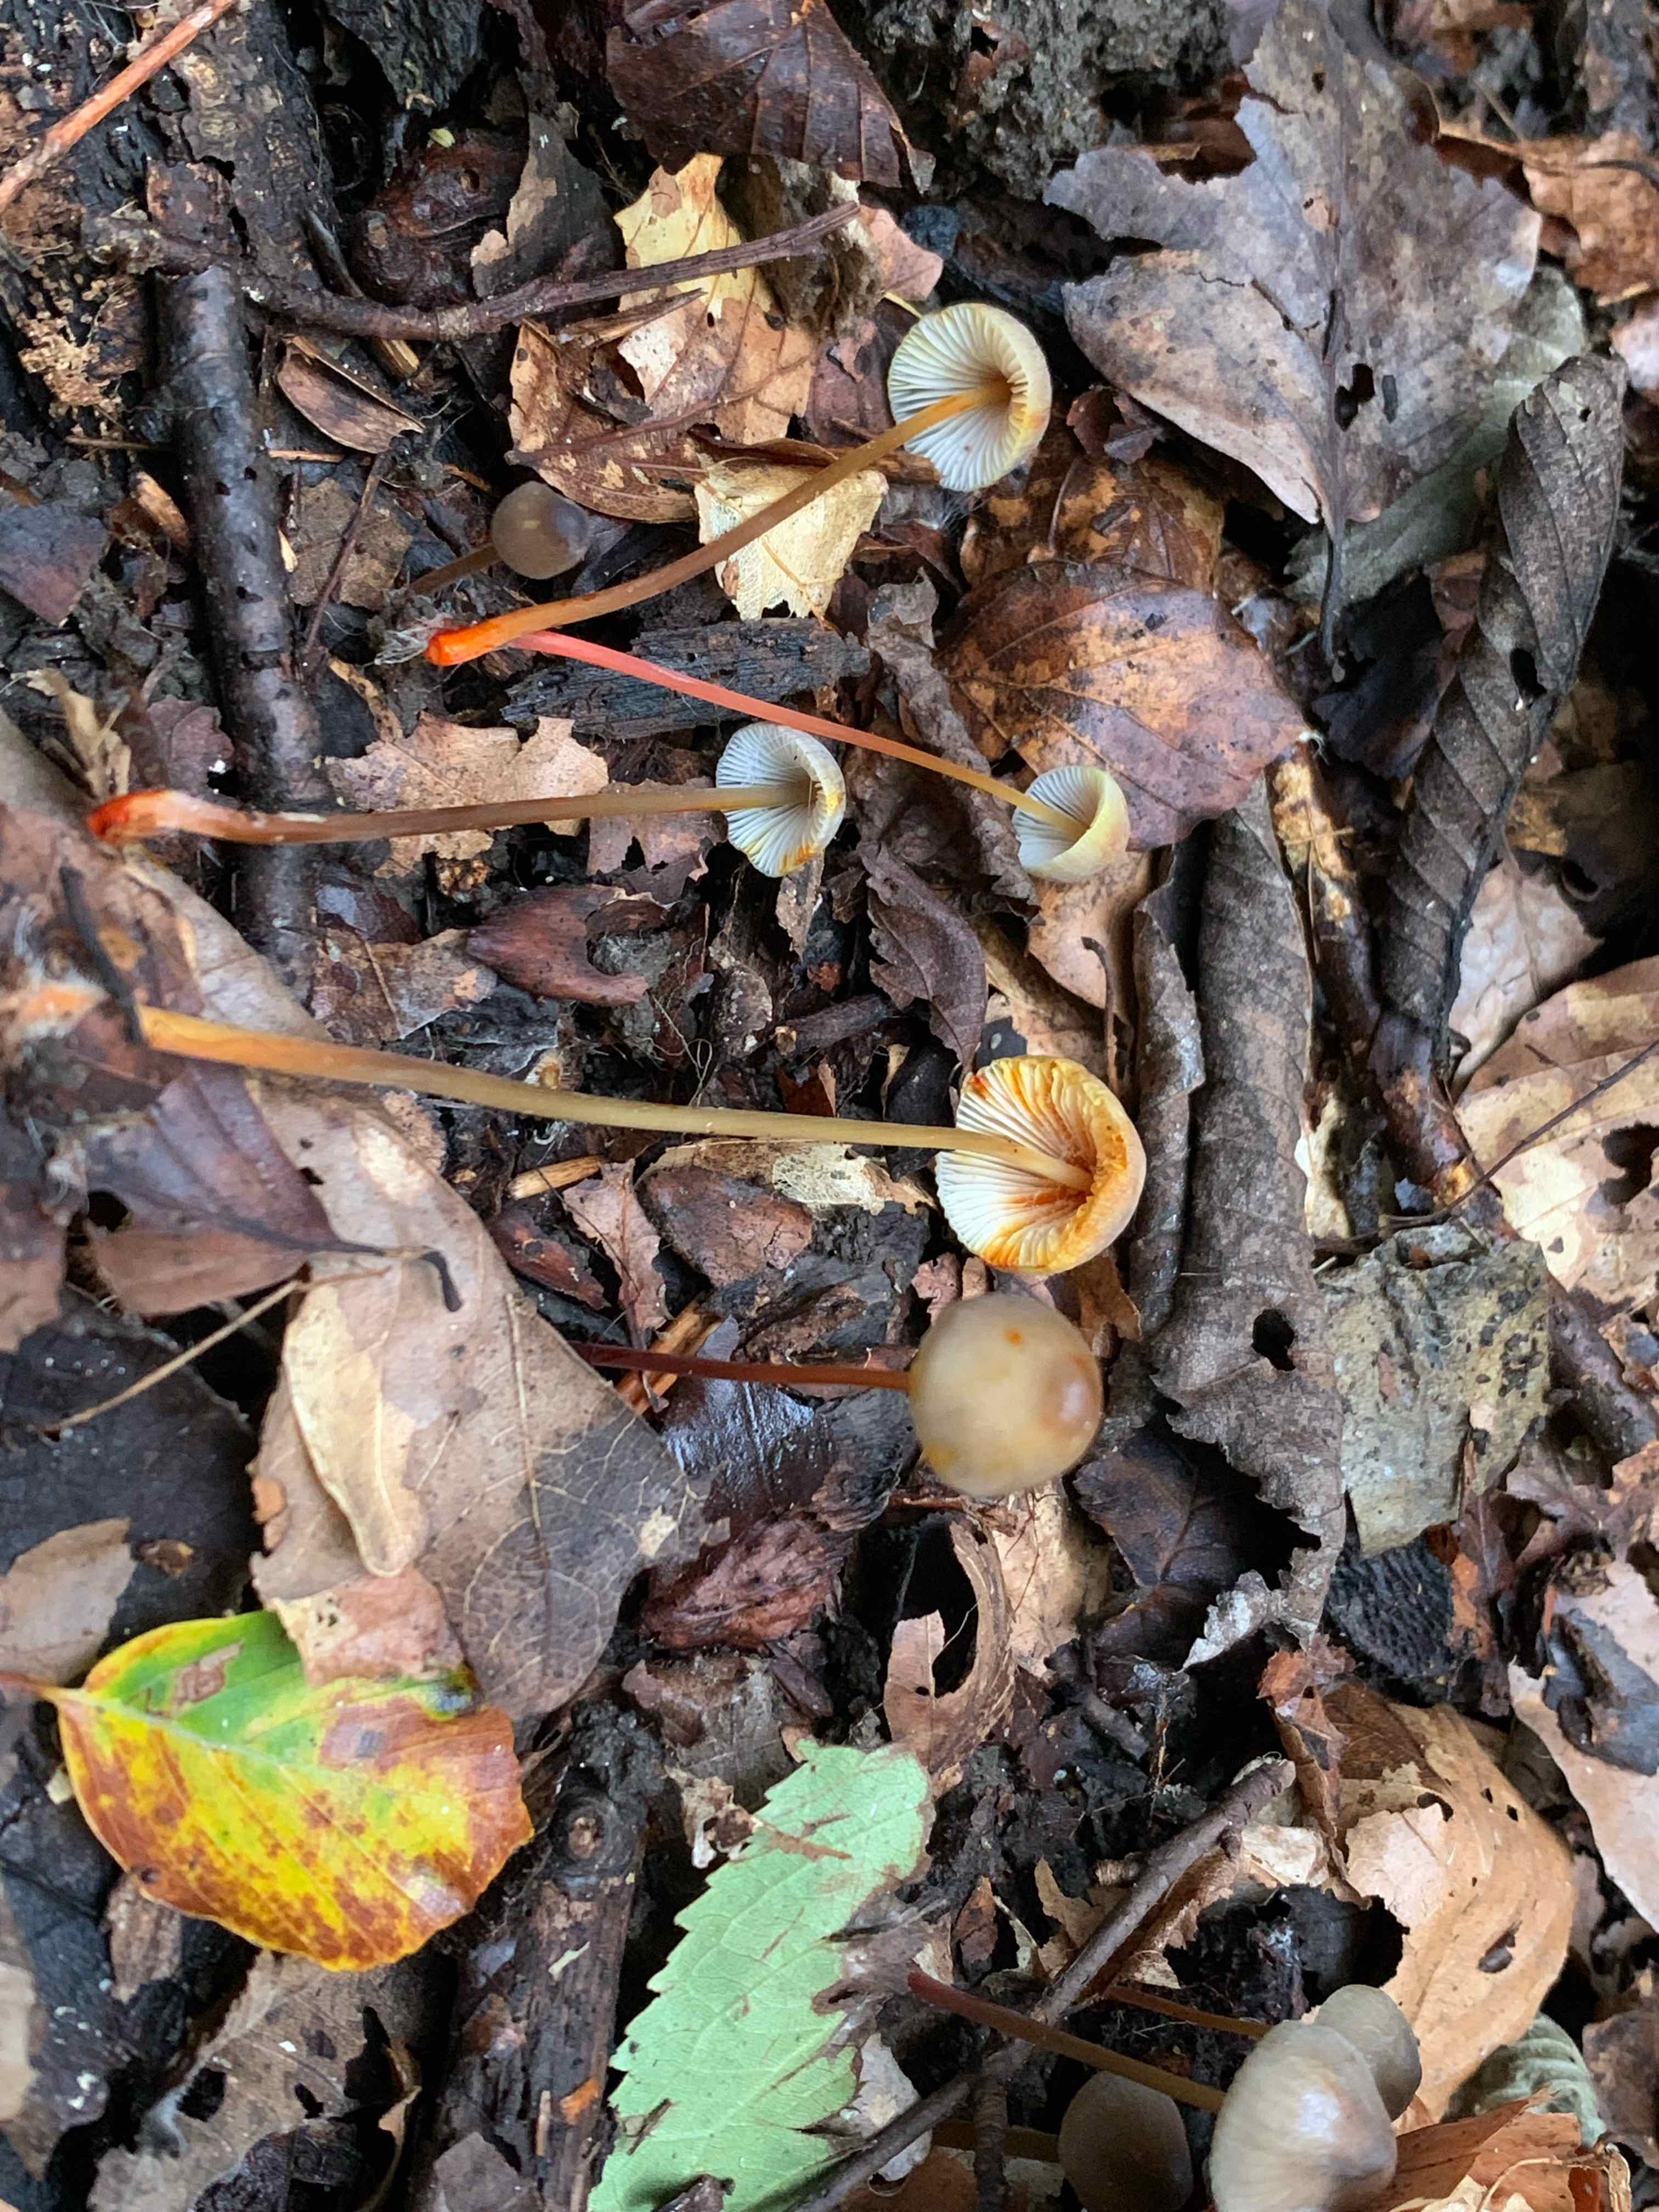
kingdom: Fungi
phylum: Basidiomycota
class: Agaricomycetes
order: Agaricales
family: Mycenaceae
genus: Mycena
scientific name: Mycena crocata
